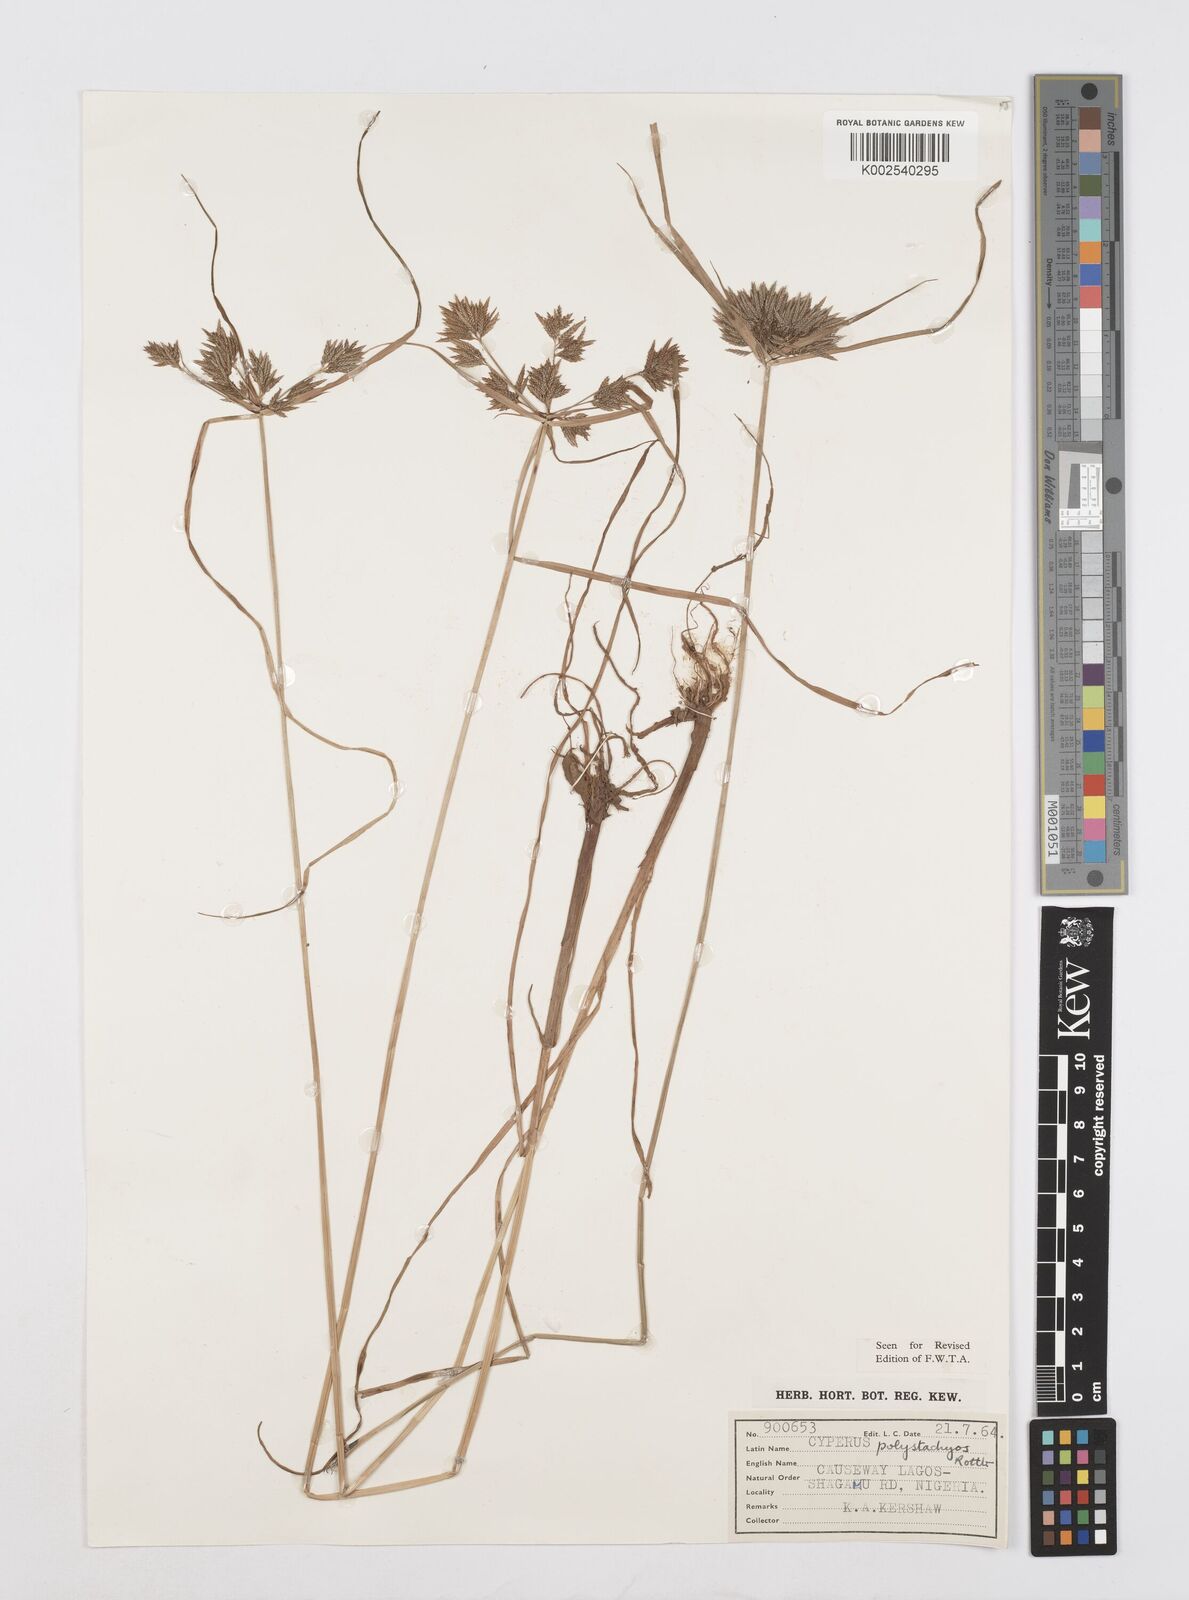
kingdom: Plantae
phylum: Tracheophyta
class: Liliopsida
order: Poales
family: Cyperaceae
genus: Cyperus
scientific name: Cyperus polystachyos
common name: Bunchy flat sedge
